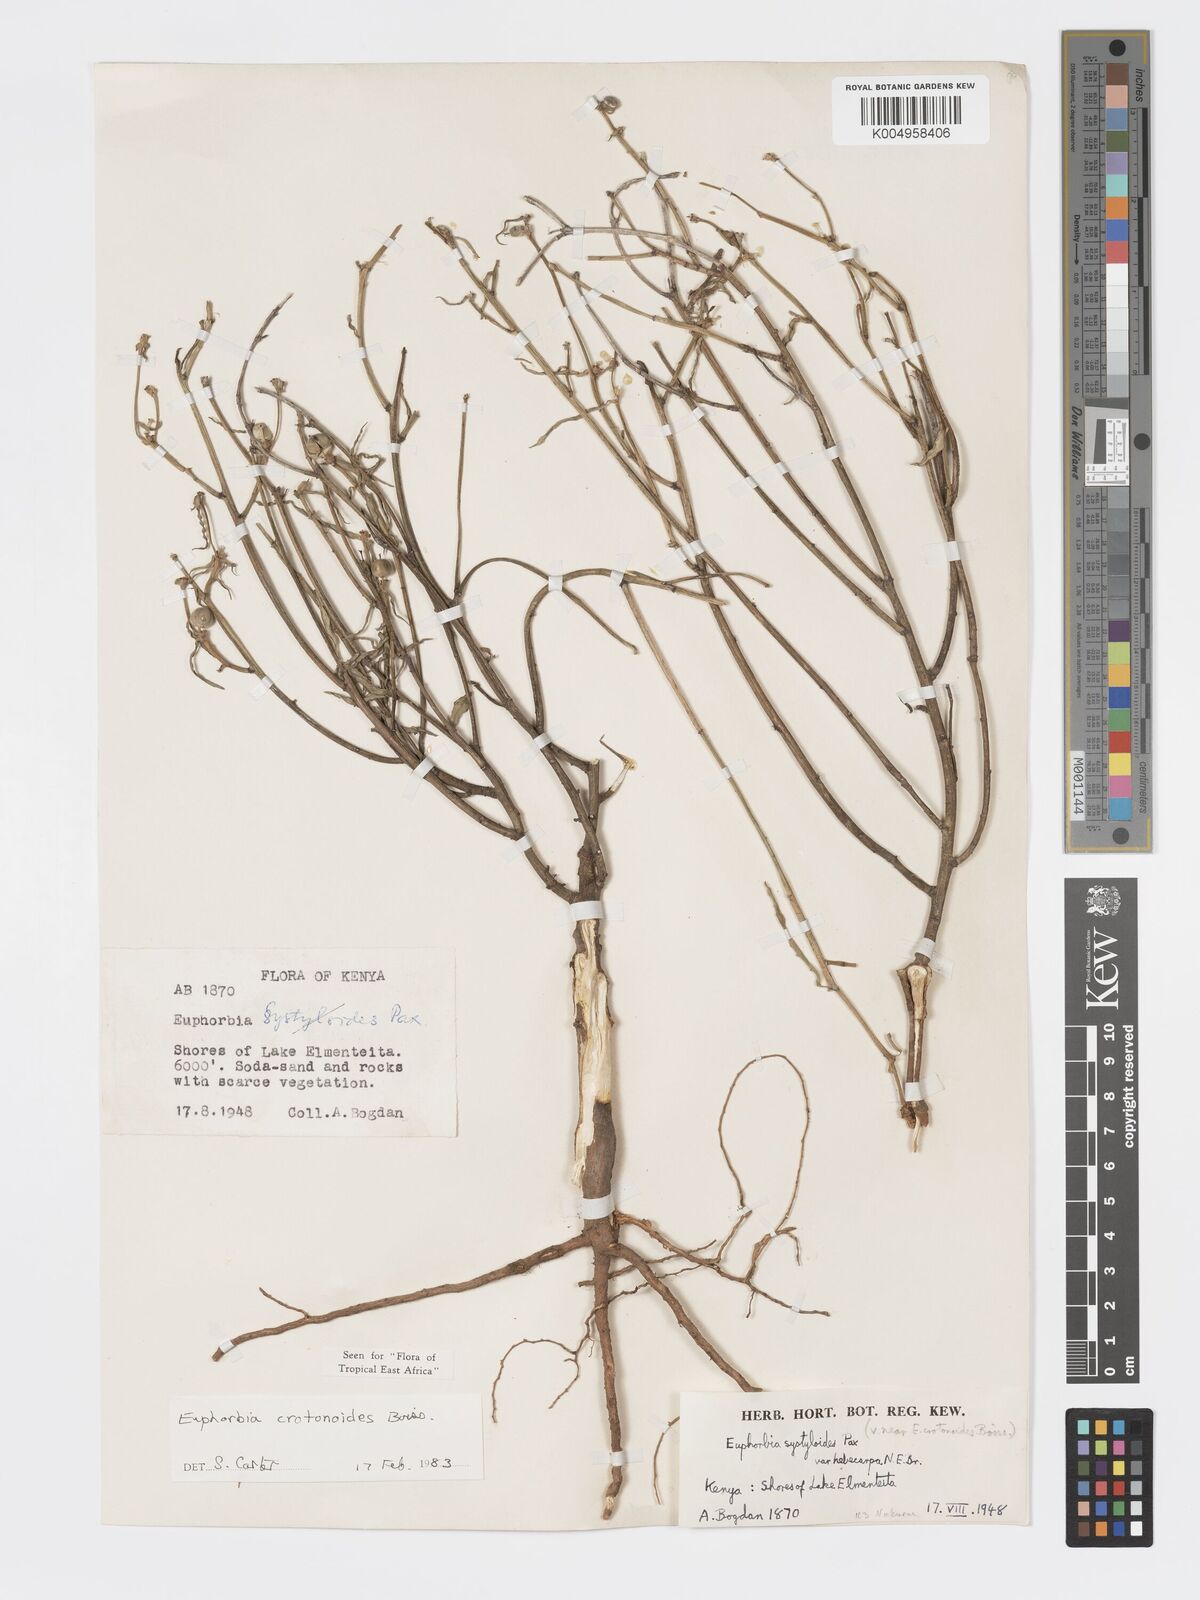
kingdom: Plantae
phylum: Tracheophyta
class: Magnoliopsida
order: Malpighiales
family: Euphorbiaceae
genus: Euphorbia
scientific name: Euphorbia crotonoides
